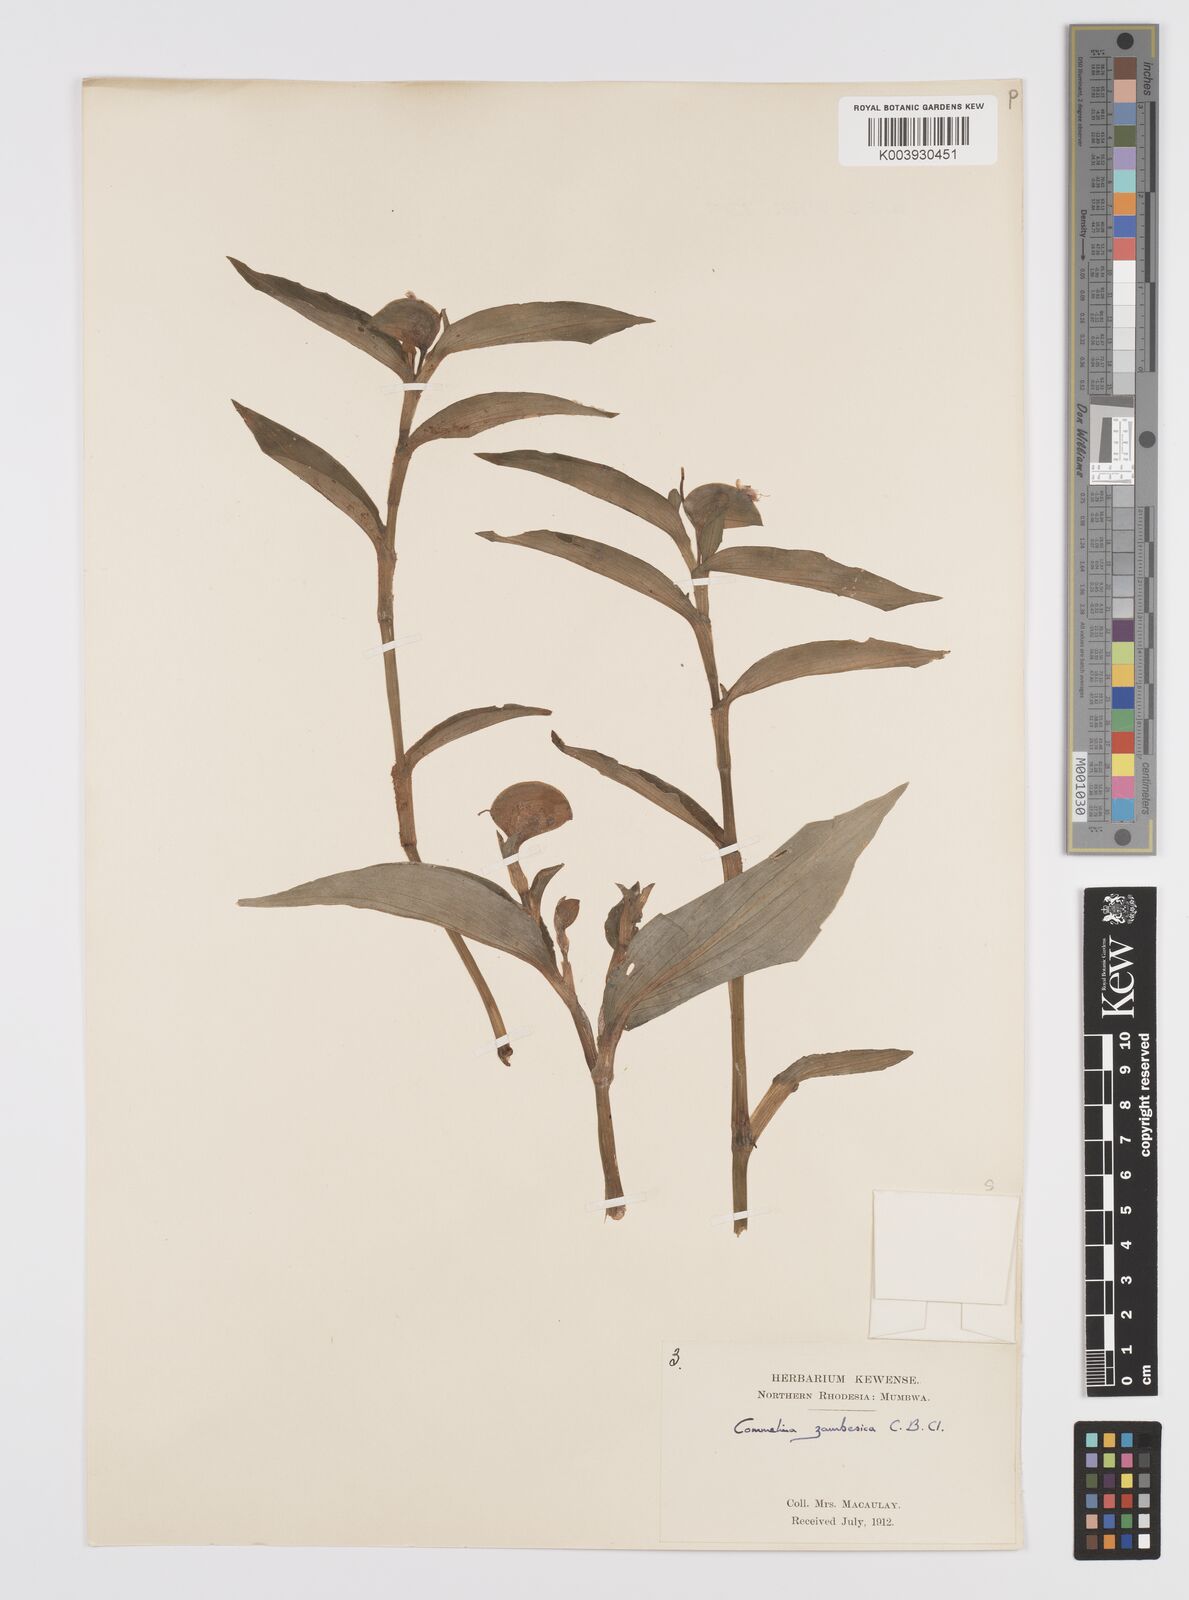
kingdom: Plantae
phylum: Tracheophyta
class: Liliopsida
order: Commelinales
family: Commelinaceae
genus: Commelina
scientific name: Commelina zambesica
